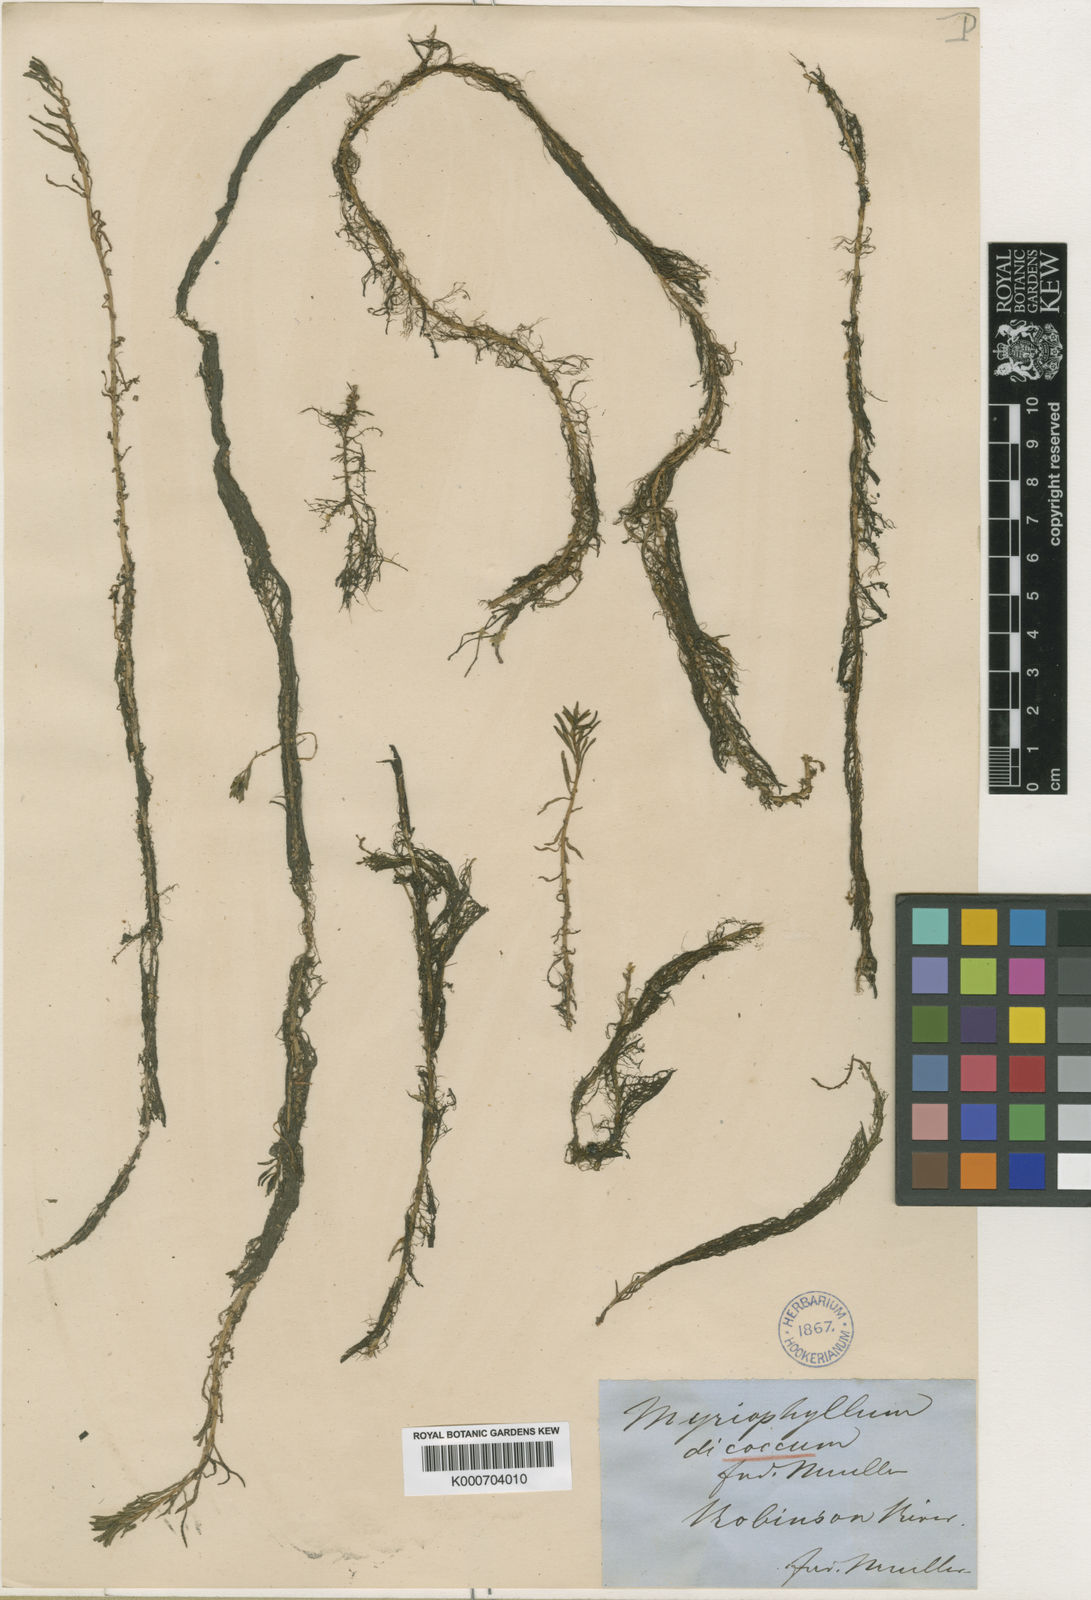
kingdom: Plantae
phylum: Tracheophyta
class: Magnoliopsida
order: Saxifragales
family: Haloragaceae
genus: Myriophyllum
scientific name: Myriophyllum dicoccum
